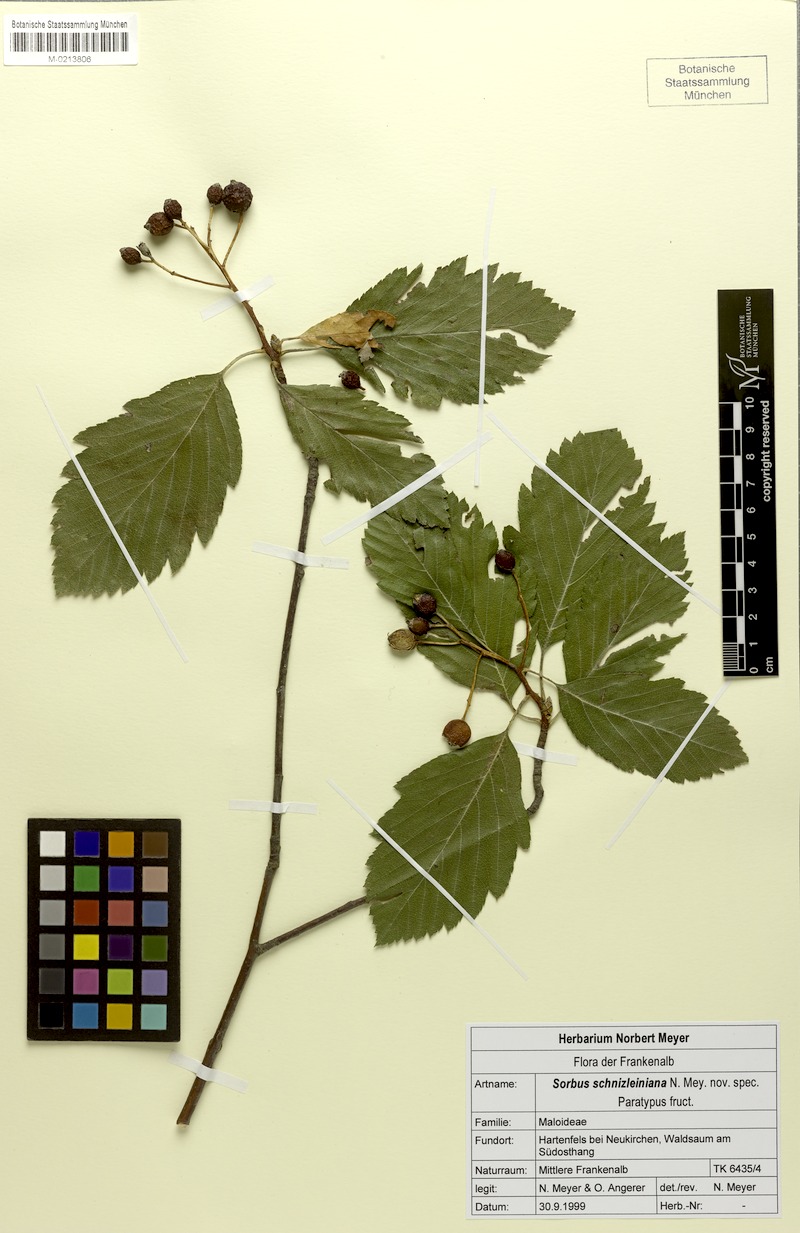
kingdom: Plantae
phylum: Tracheophyta
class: Magnoliopsida
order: Rosales
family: Rosaceae
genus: Karpatiosorbus
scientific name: Karpatiosorbus schnizleiniana
